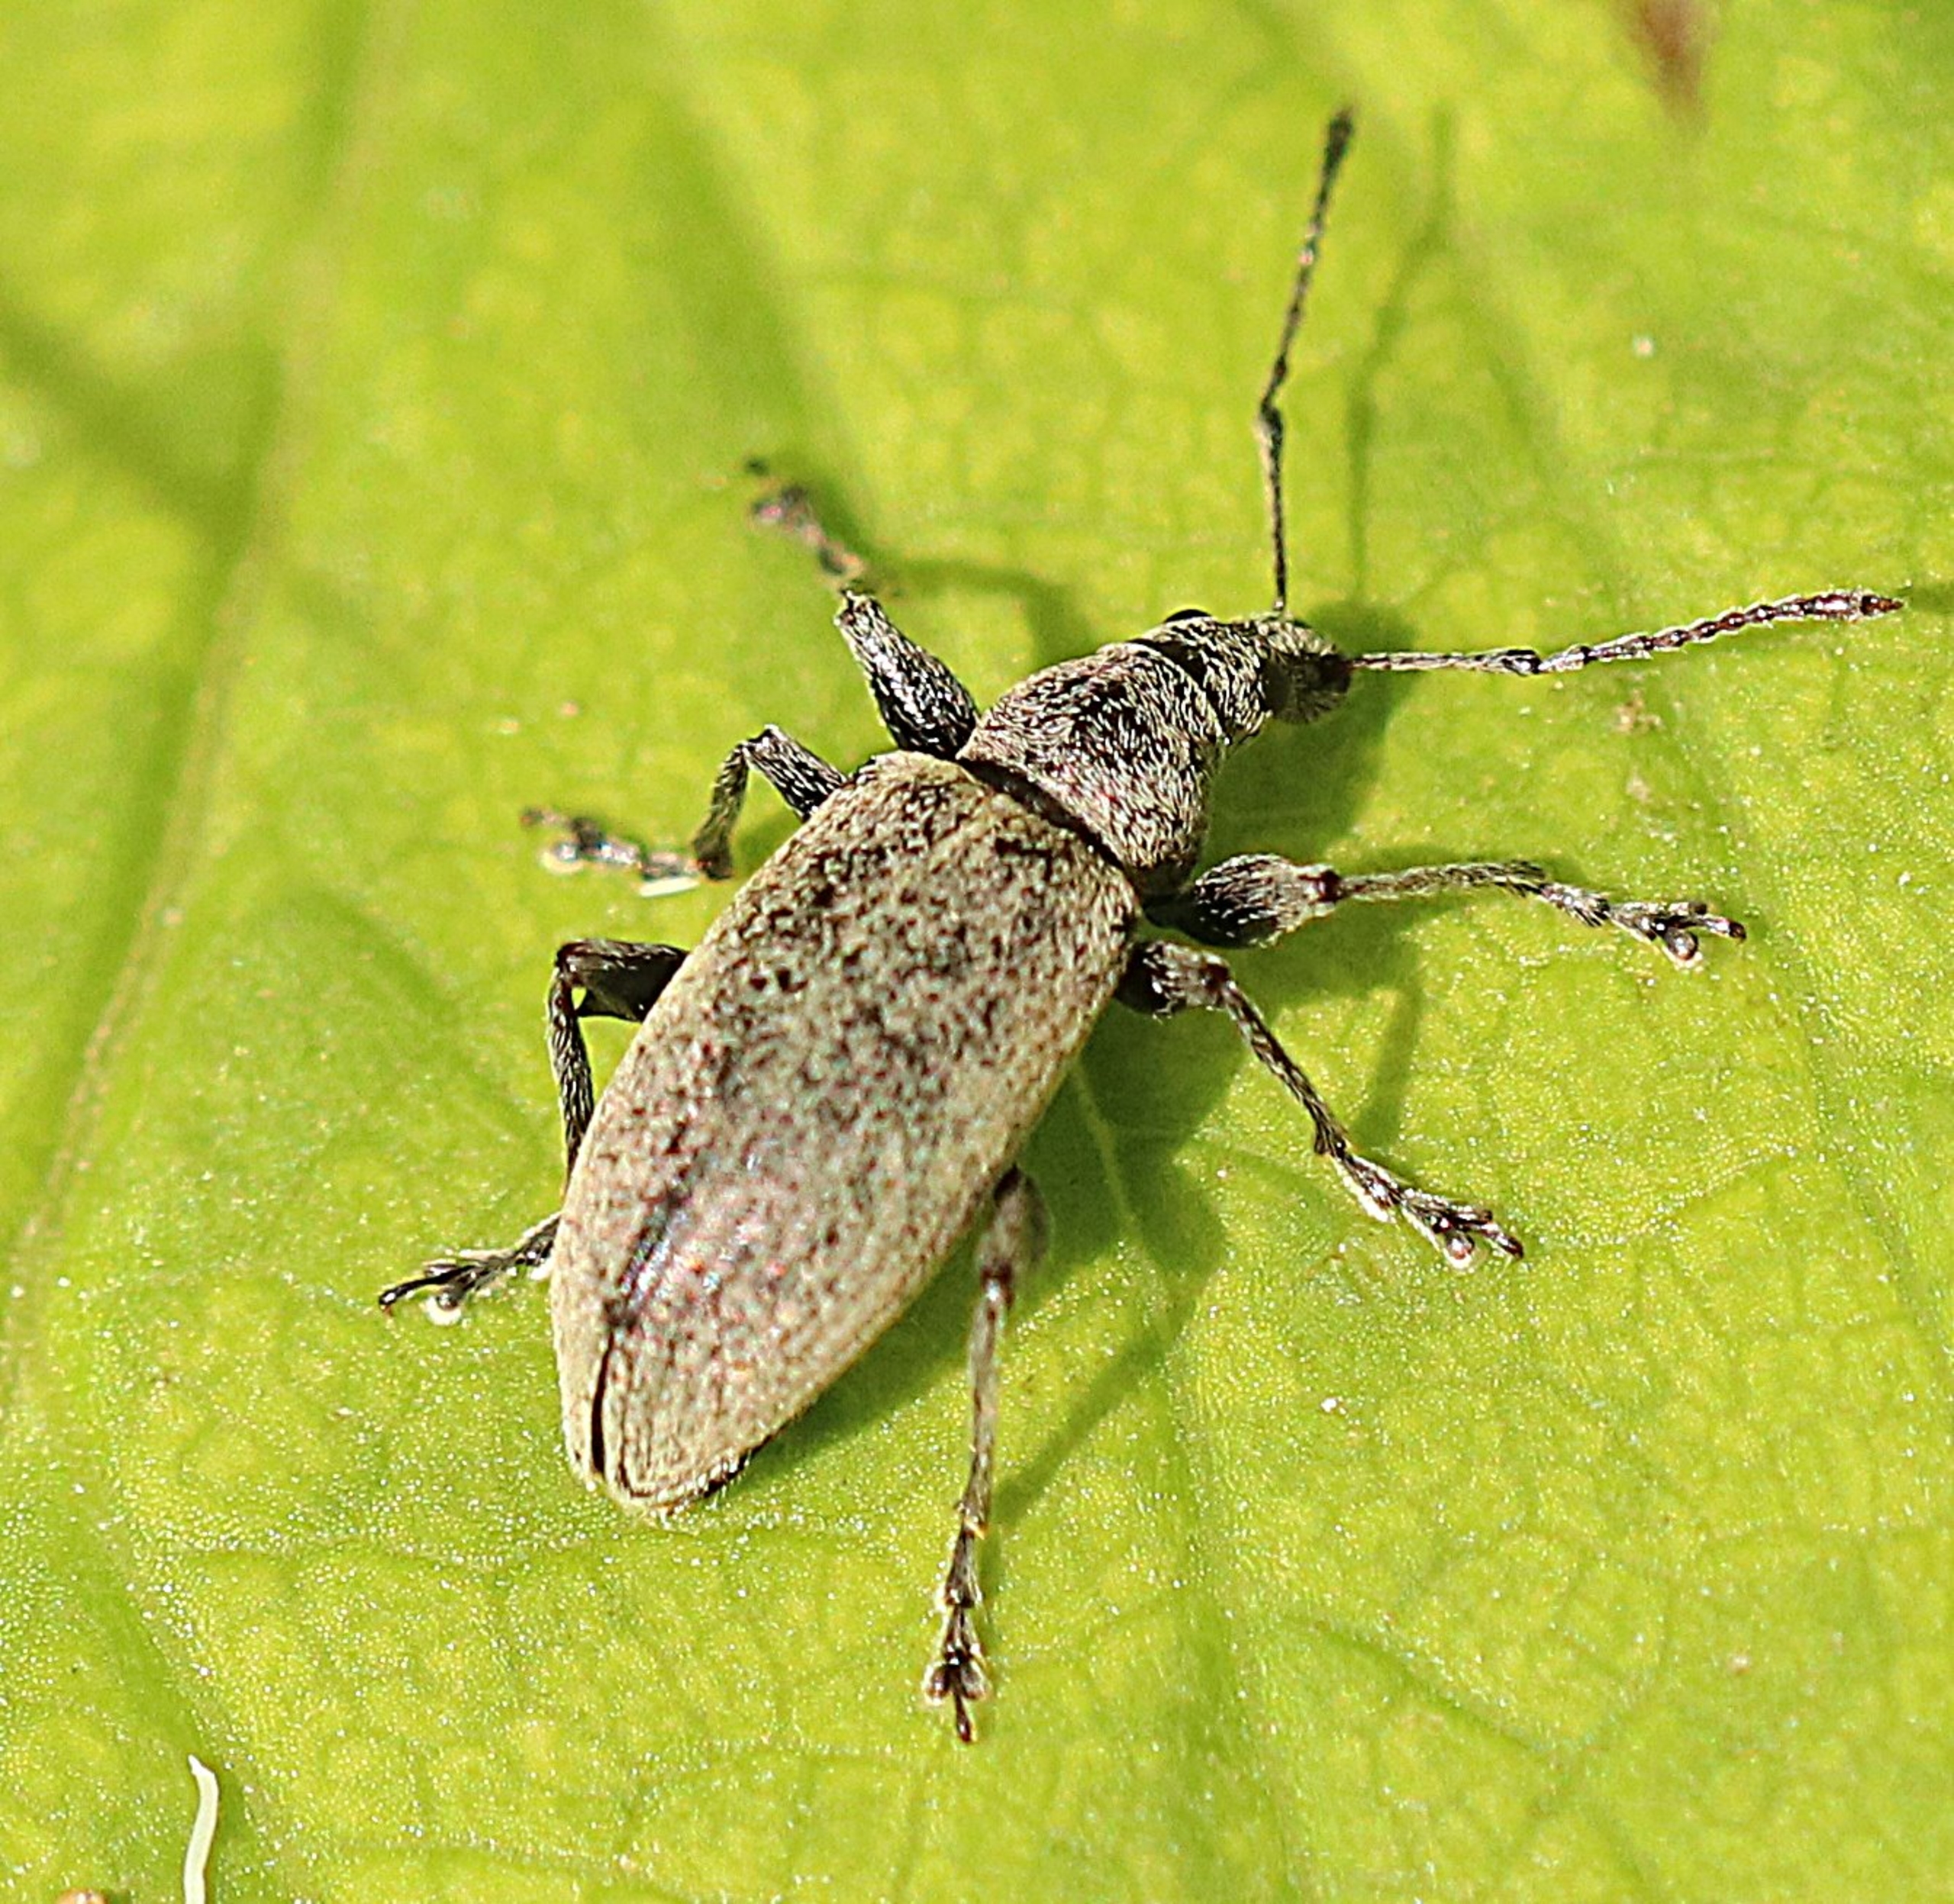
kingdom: Animalia
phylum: Arthropoda
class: Insecta
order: Coleoptera
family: Curculionidae
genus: Phyllobius
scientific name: Phyllobius pomaceus
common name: Nældesnudebille
